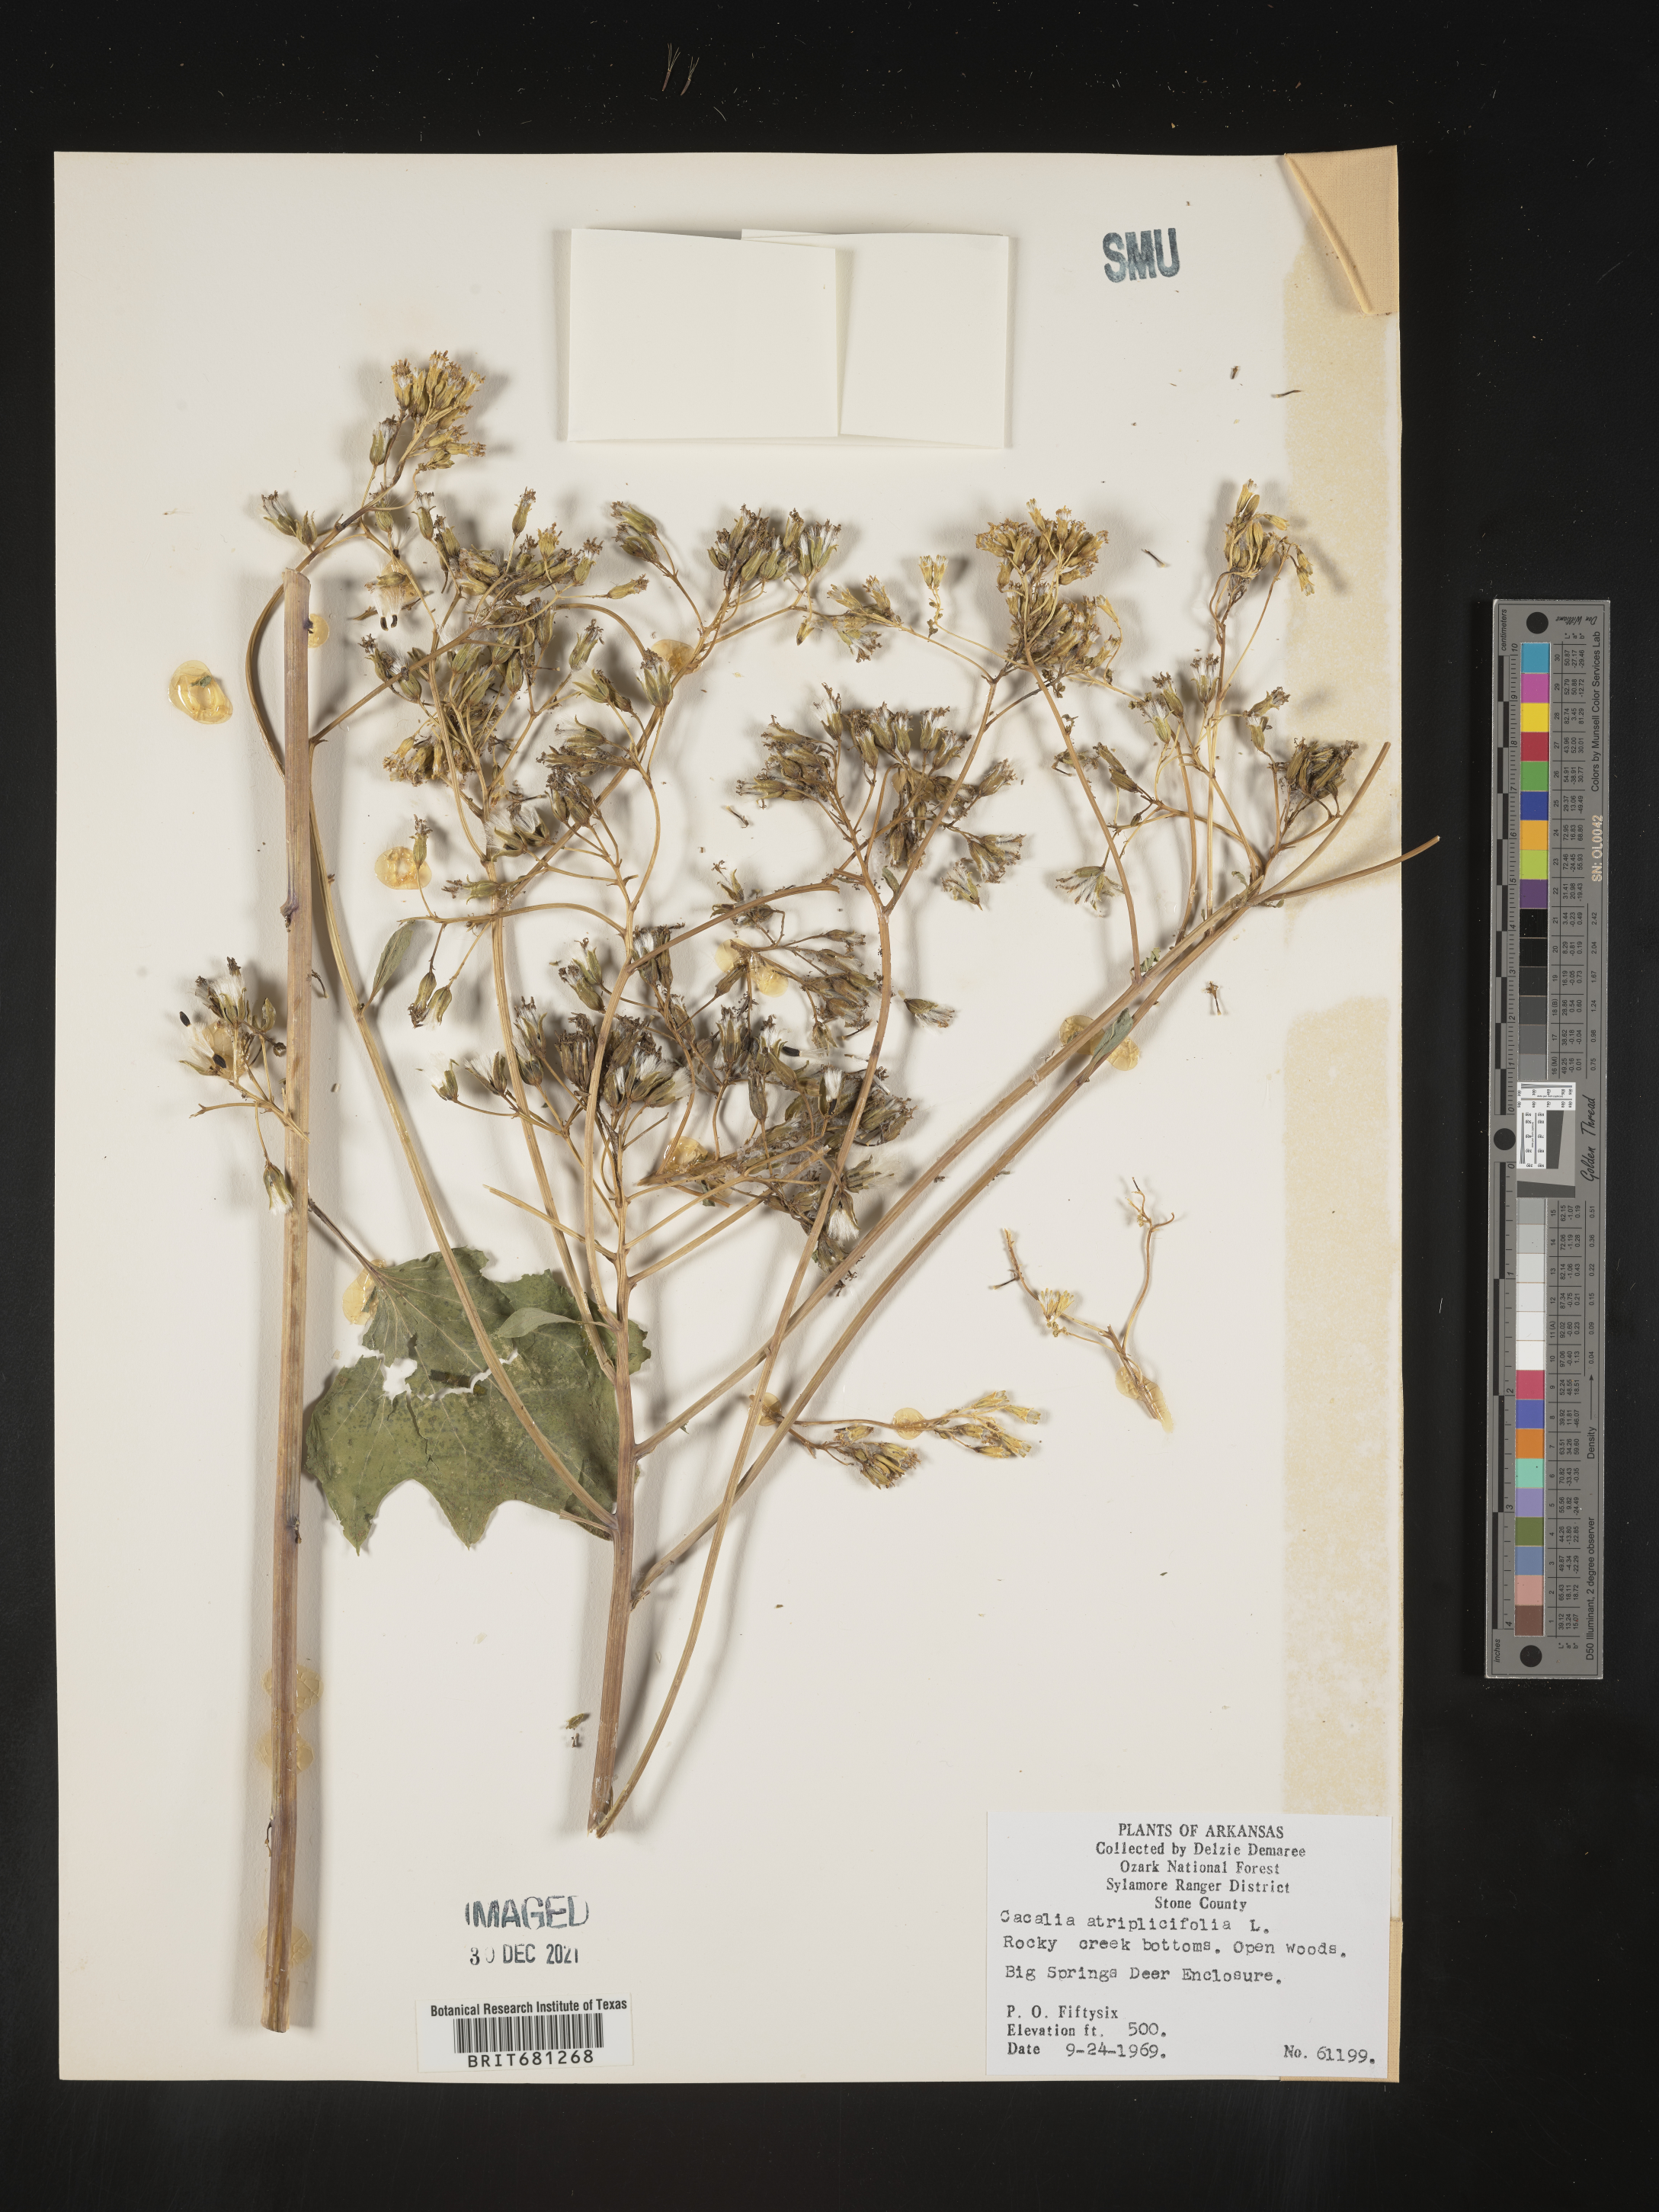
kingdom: Plantae
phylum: Tracheophyta
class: Magnoliopsida
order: Asterales
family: Asteraceae
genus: Arnoglossum
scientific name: Arnoglossum atriplicifolium
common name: Pale indian-plantain
